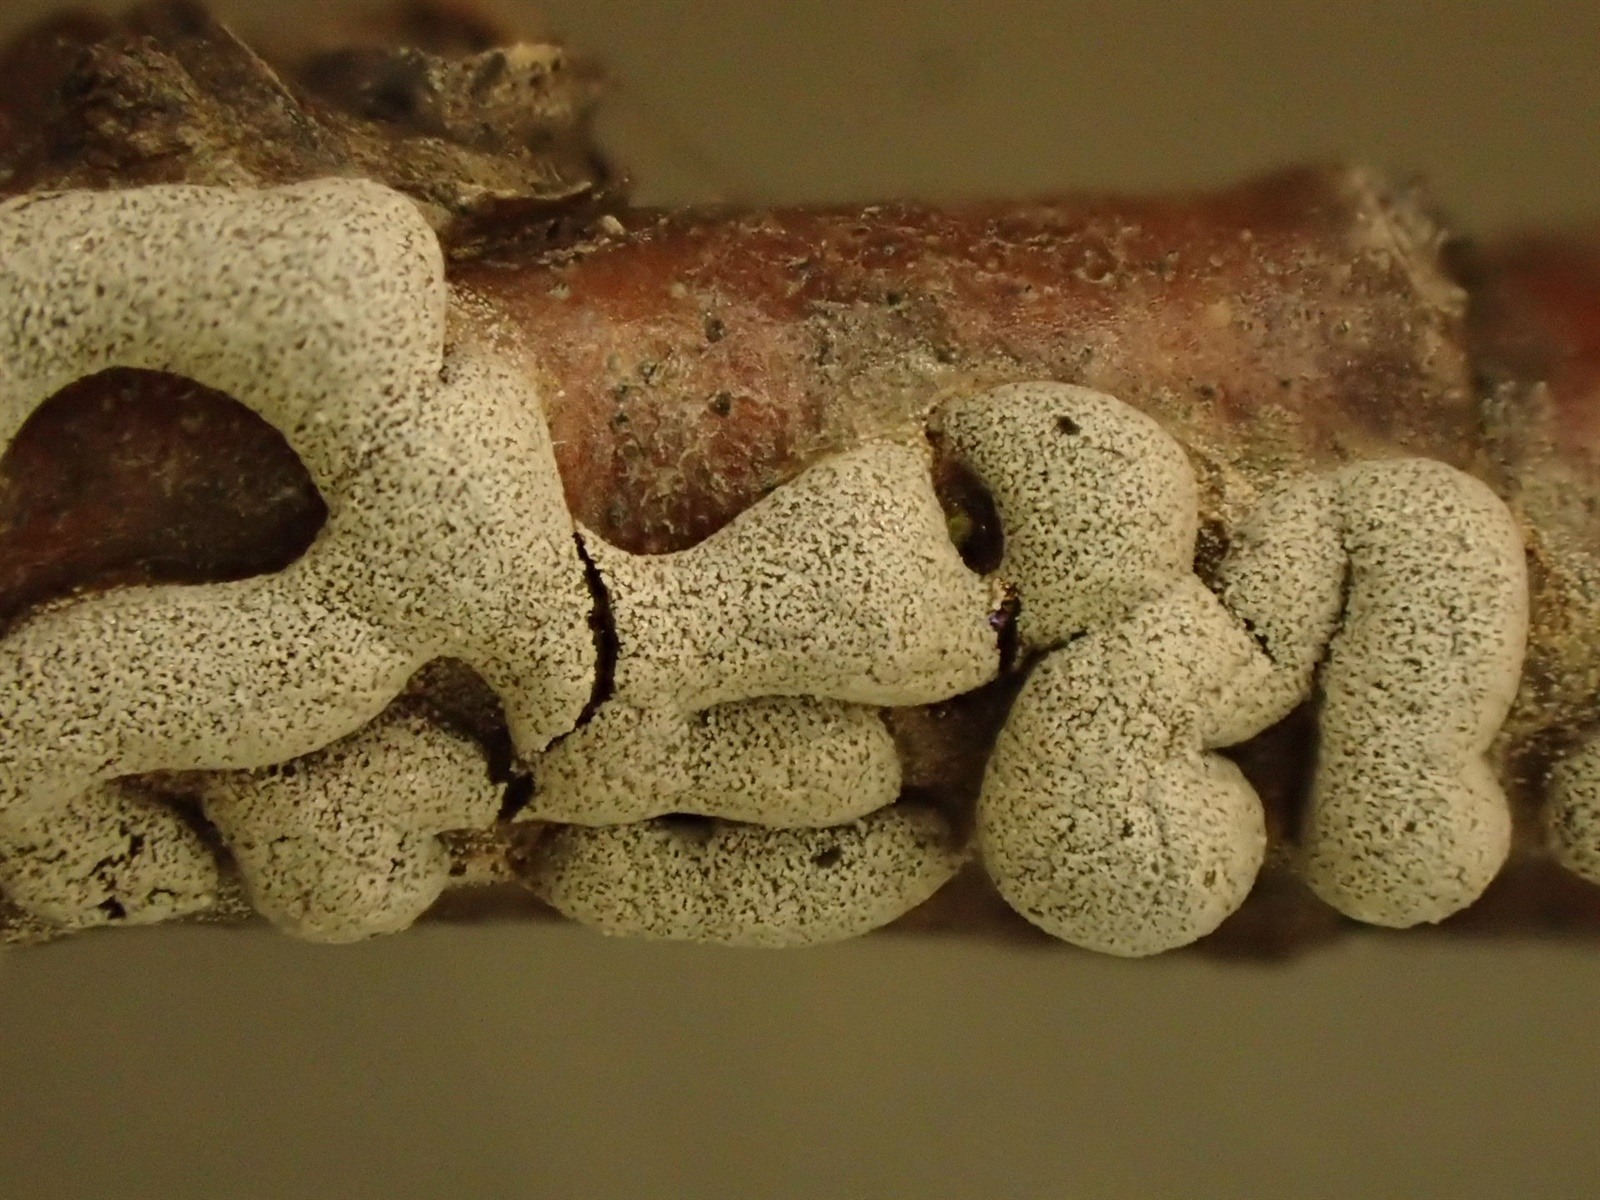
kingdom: Protozoa
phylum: Mycetozoa
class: Myxomycetes
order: Physarales
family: Didymiaceae
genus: Polyschismium
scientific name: Polyschismium chailletii
